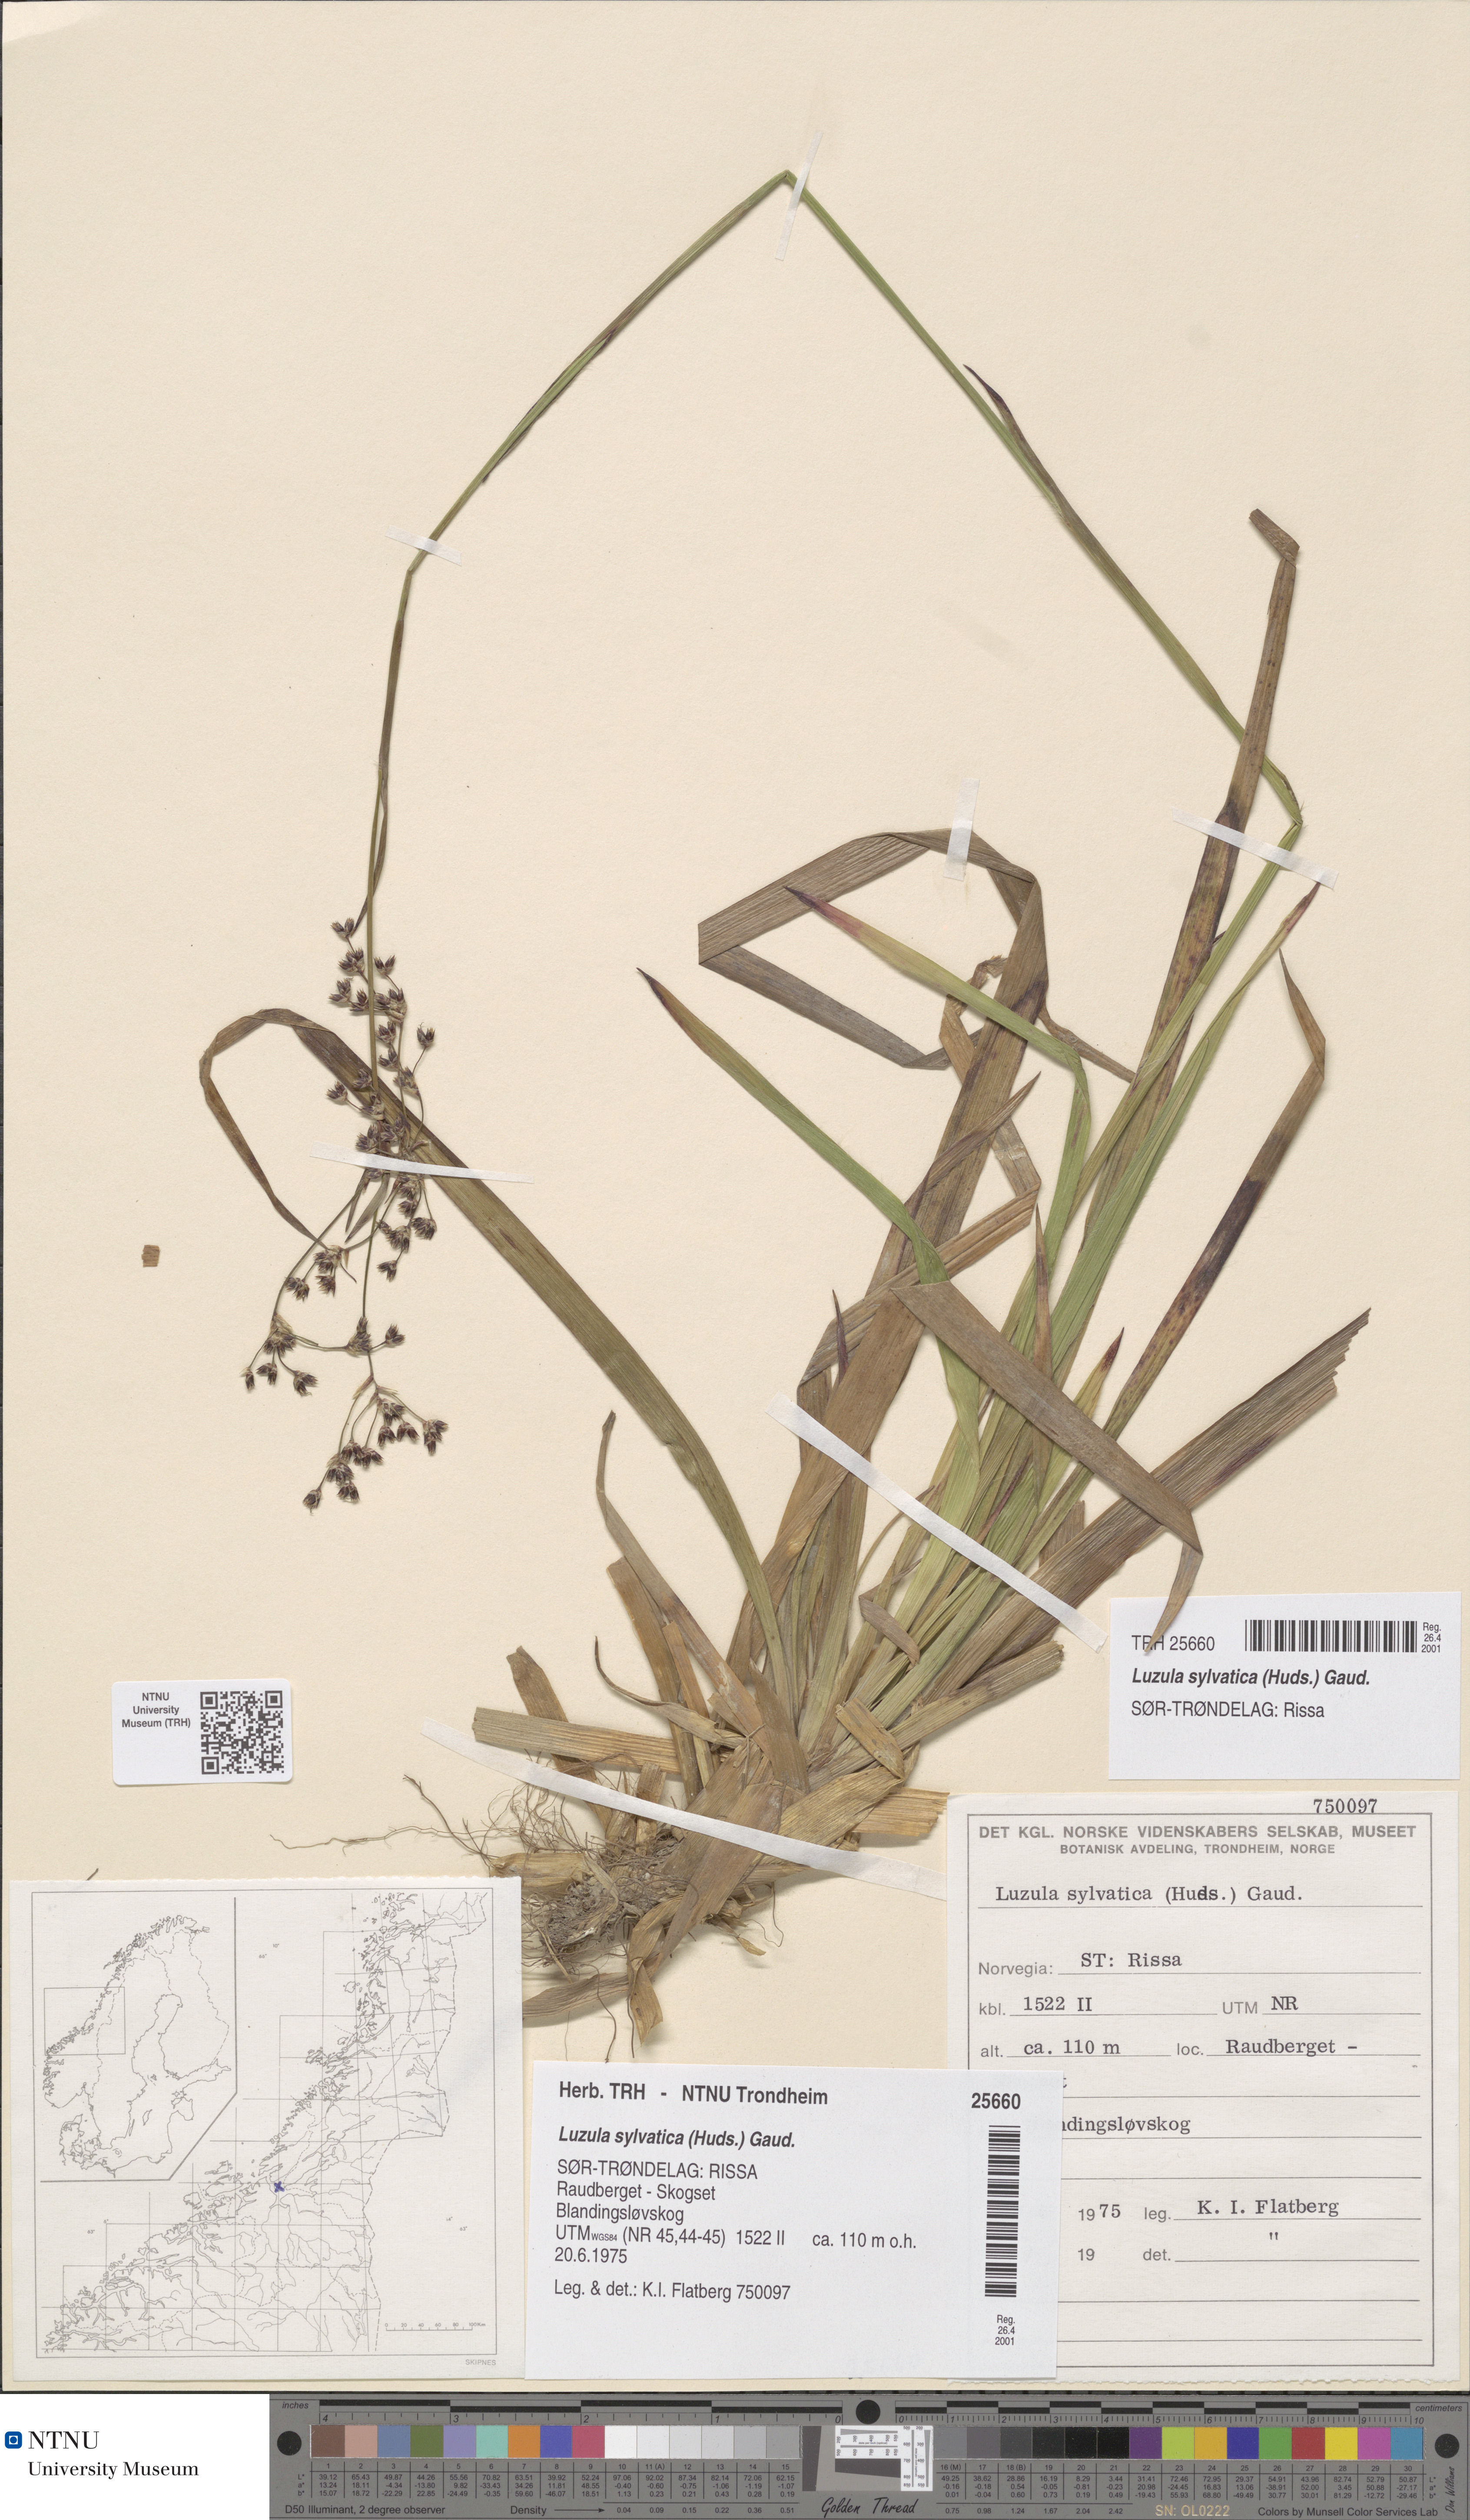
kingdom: Plantae
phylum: Tracheophyta
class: Liliopsida
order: Poales
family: Juncaceae
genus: Luzula
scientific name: Luzula sylvatica
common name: Great wood-rush
